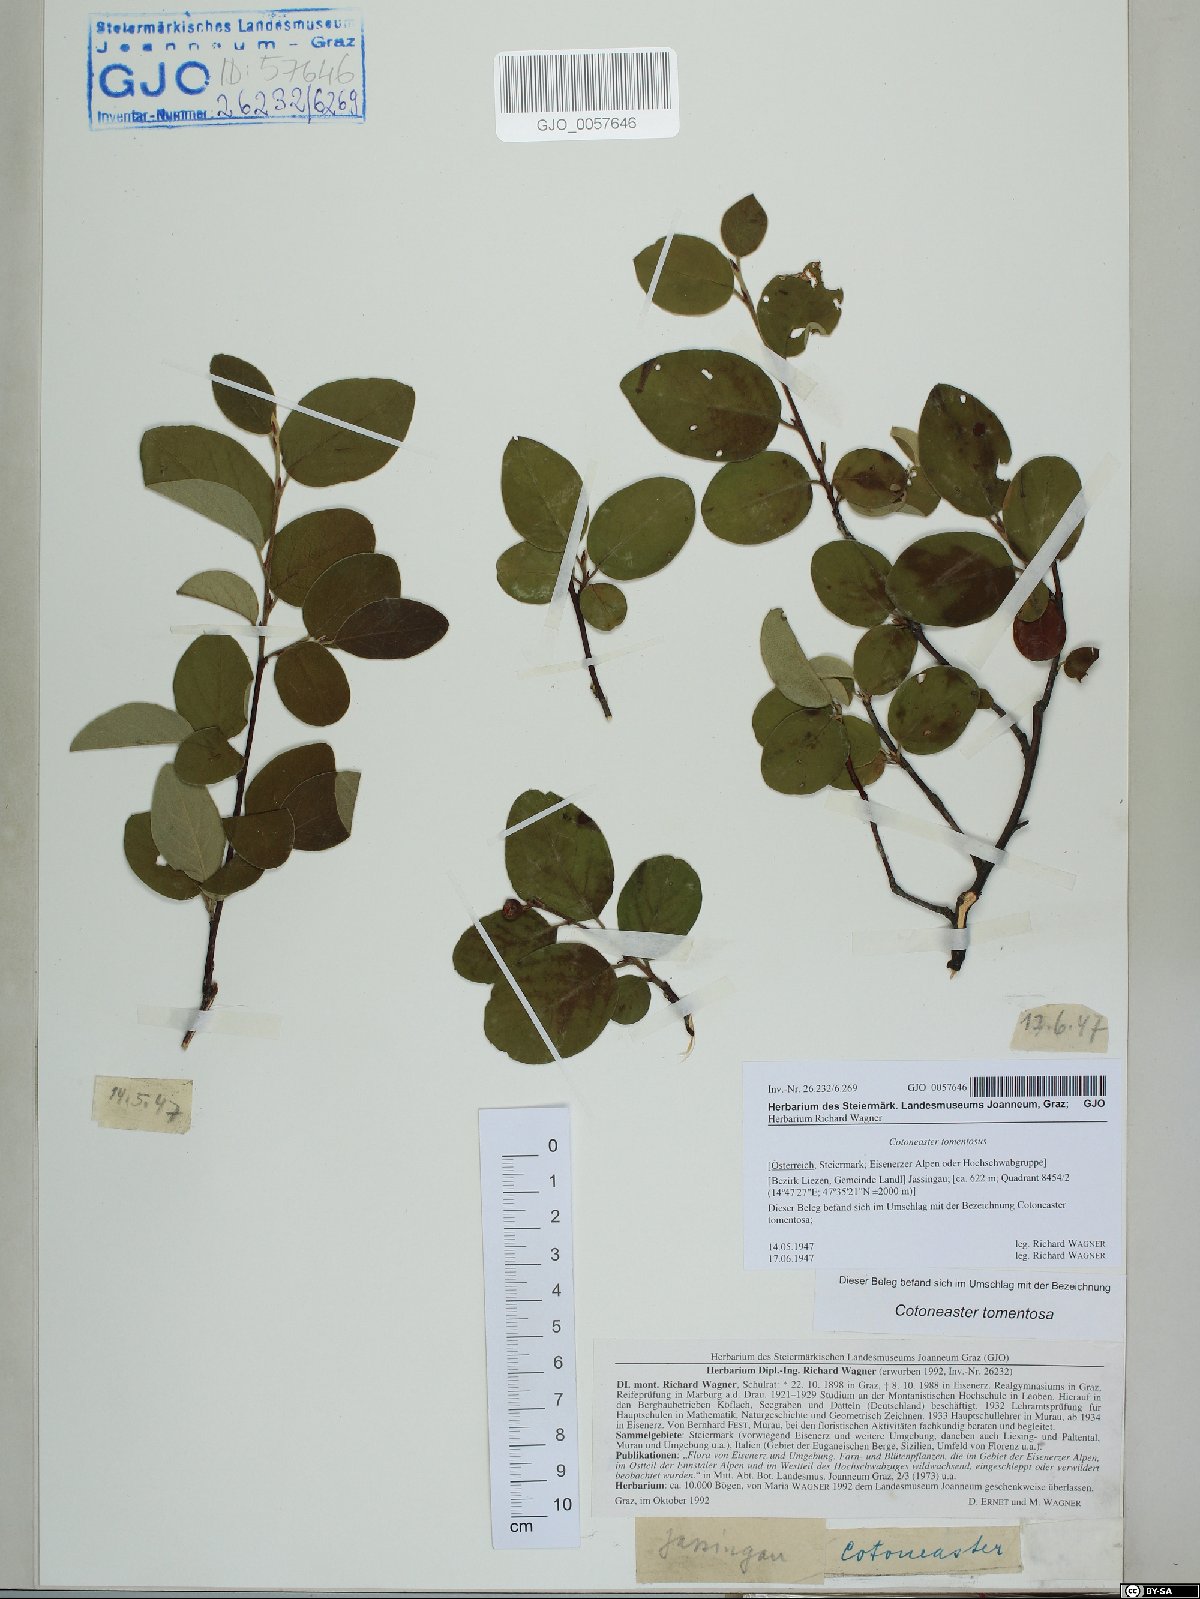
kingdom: Plantae
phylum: Tracheophyta
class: Magnoliopsida
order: Rosales
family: Rosaceae
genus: Cotoneaster
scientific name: Cotoneaster tomentosus
